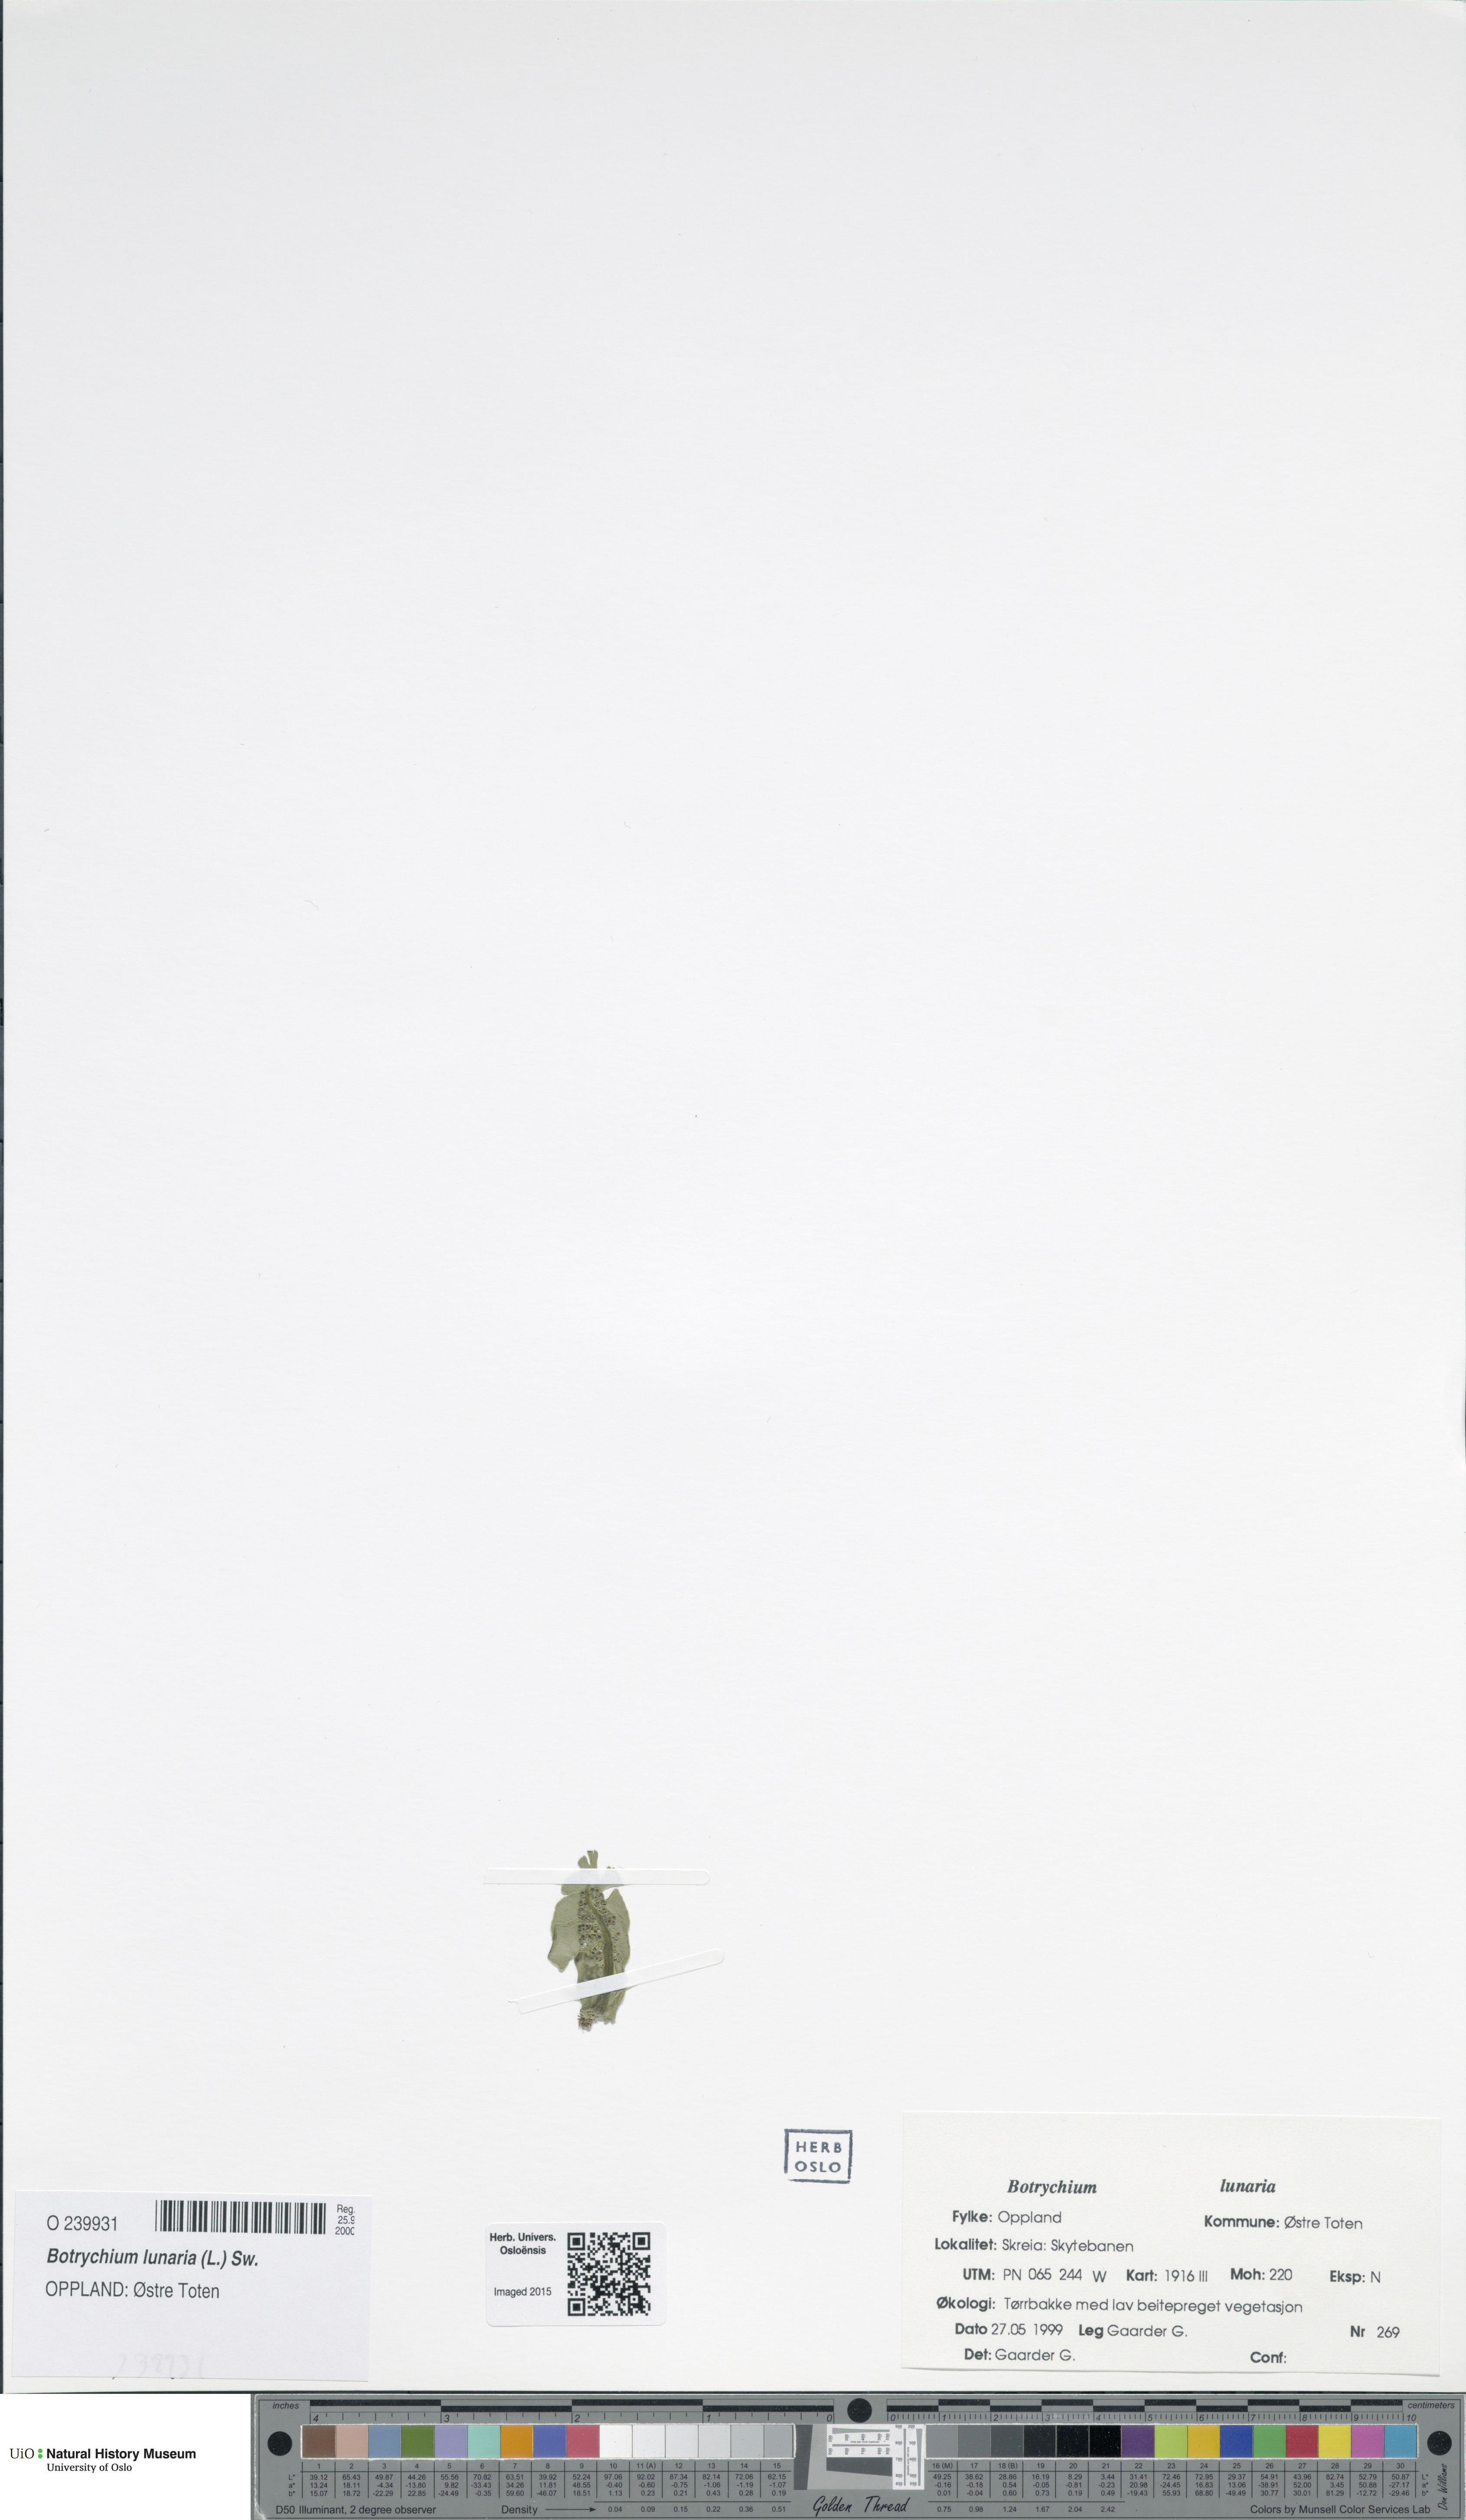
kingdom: Plantae
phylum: Tracheophyta
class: Polypodiopsida
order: Ophioglossales
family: Ophioglossaceae
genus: Botrychium
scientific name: Botrychium lunaria
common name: Moonwort
